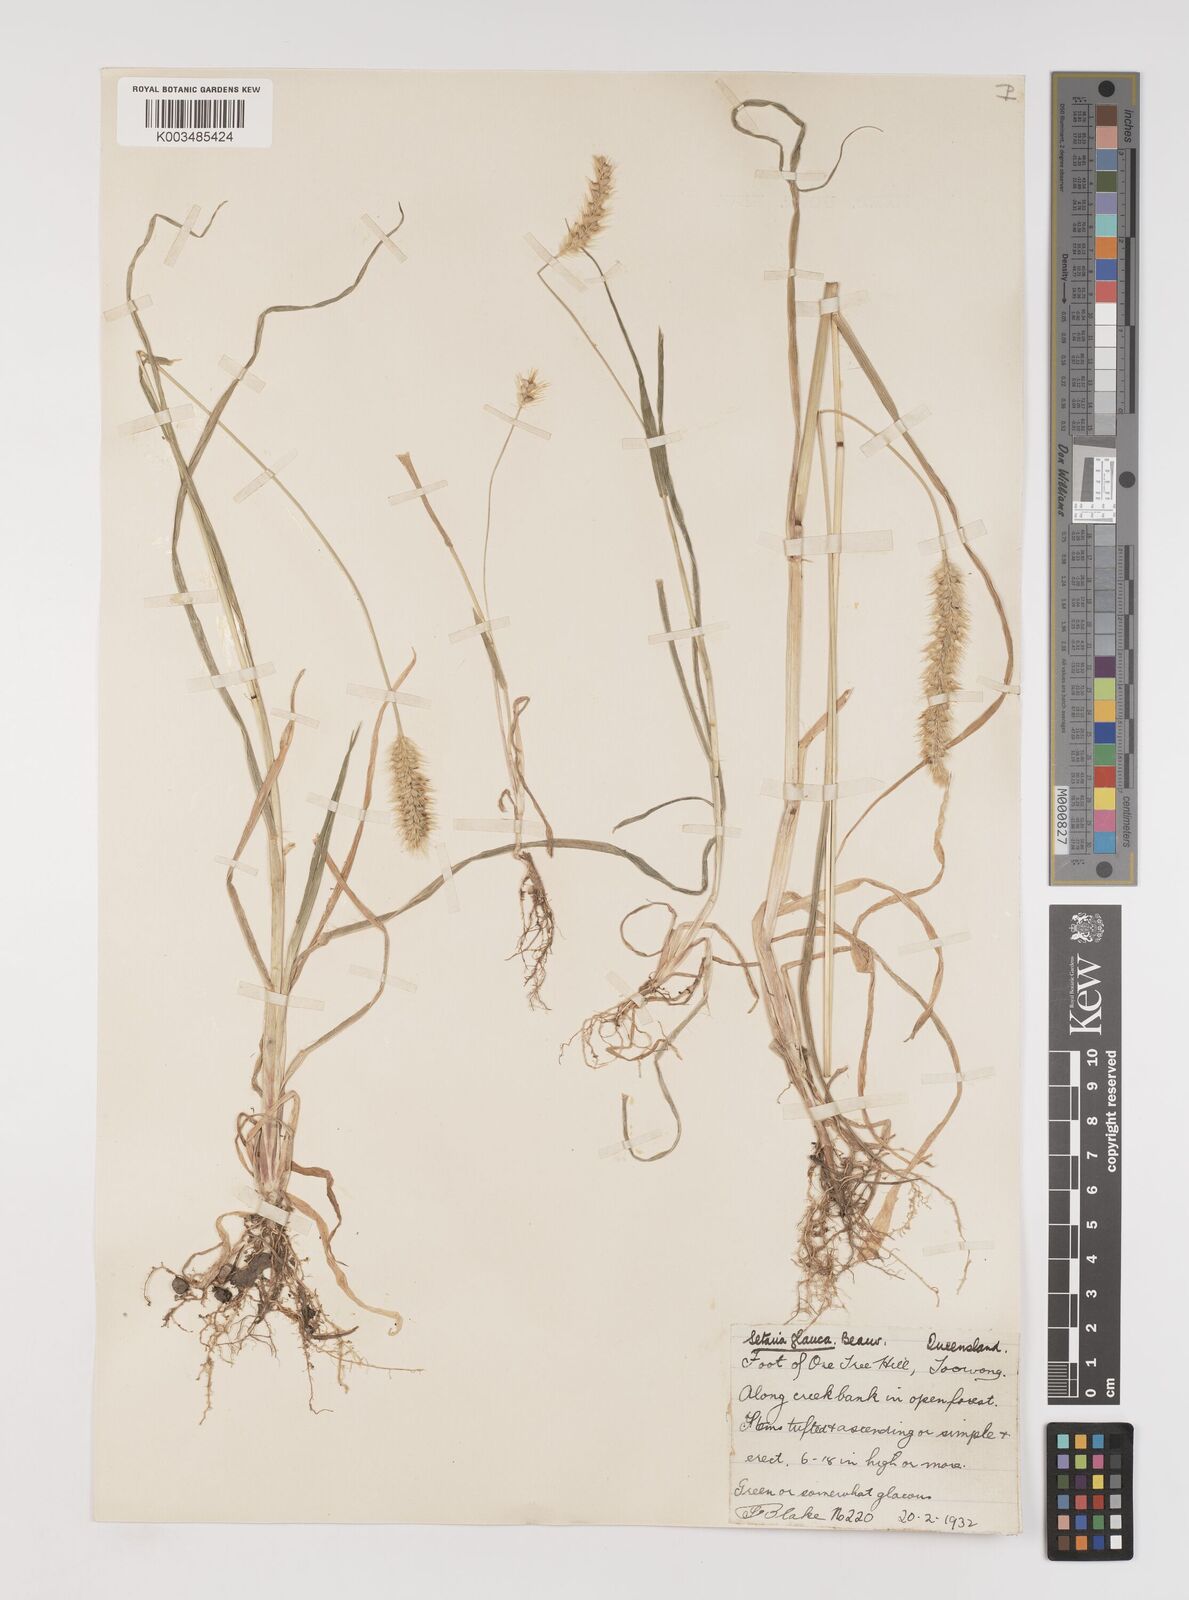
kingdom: Plantae
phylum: Tracheophyta
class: Liliopsida
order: Poales
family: Poaceae
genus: Setaria
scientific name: Setaria pumila
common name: Yellow bristle-grass
